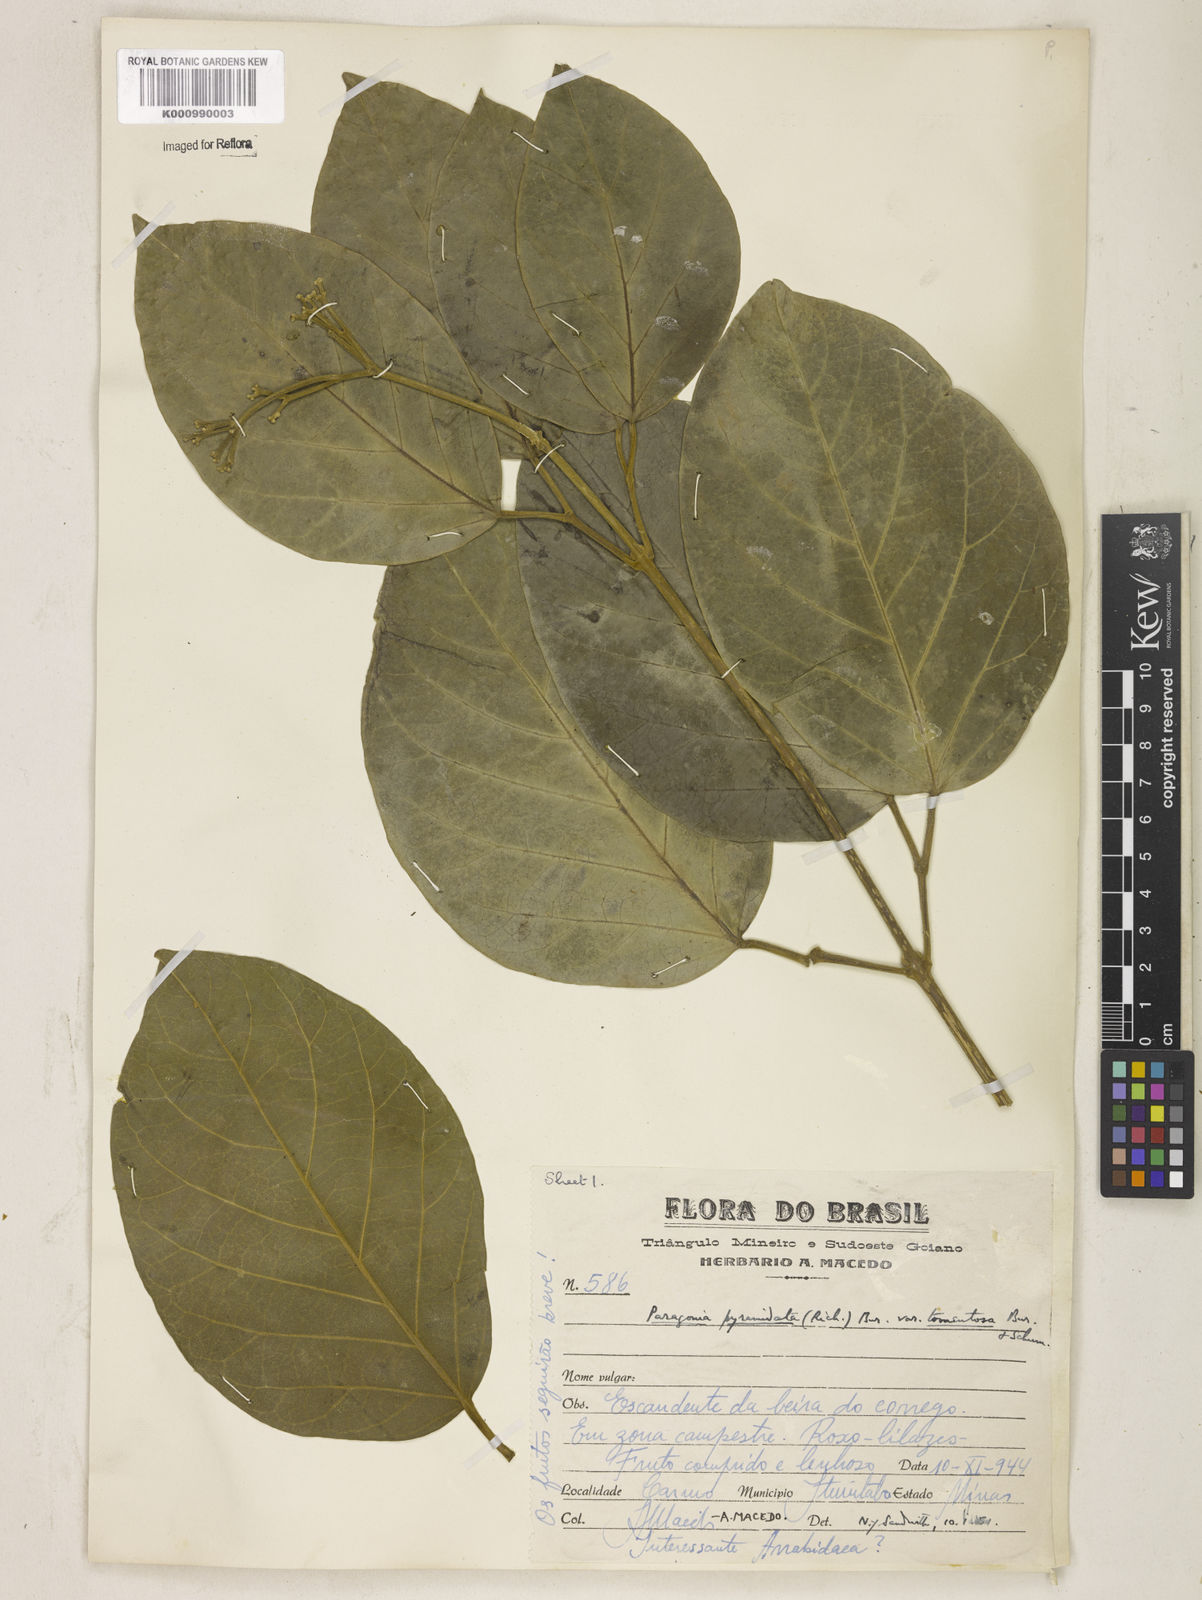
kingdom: Plantae
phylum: Tracheophyta
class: Magnoliopsida
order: Lamiales
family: Bignoniaceae
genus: Tanaecium
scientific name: Tanaecium pyramidatum
